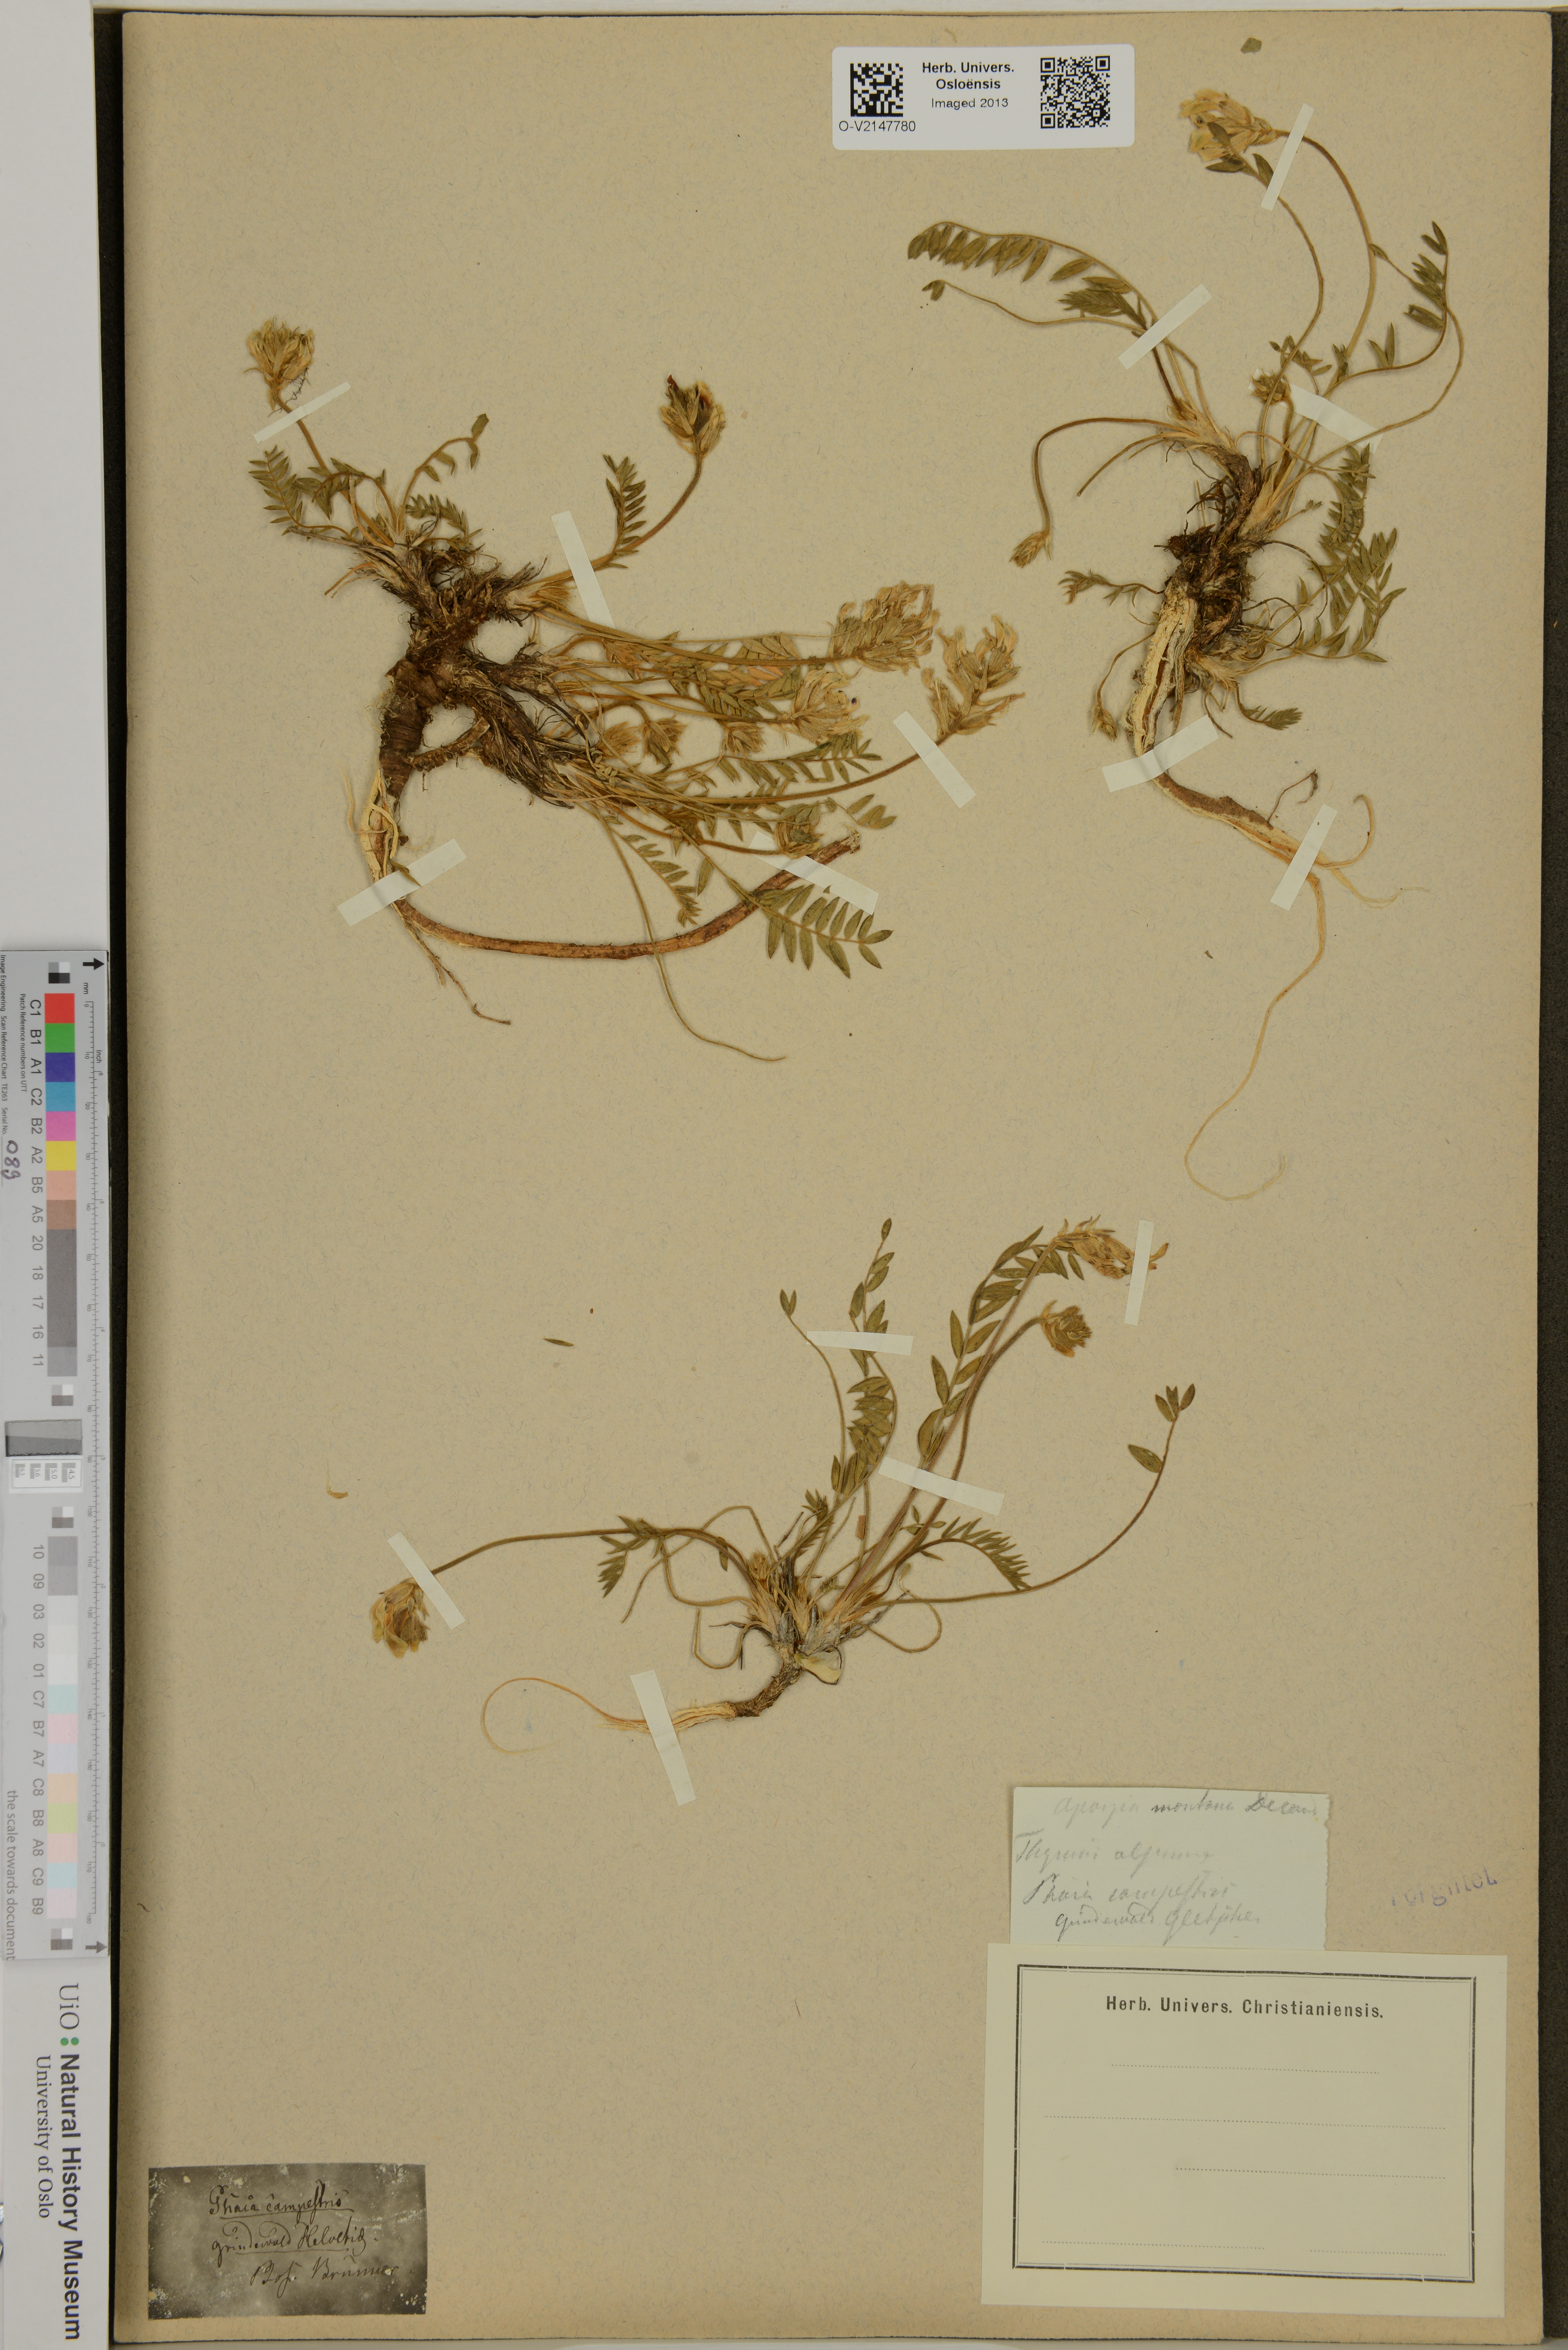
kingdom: Plantae
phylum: Tracheophyta
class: Magnoliopsida
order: Fabales
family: Fabaceae
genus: Oxytropis
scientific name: Oxytropis campestris
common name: Field locoweed
